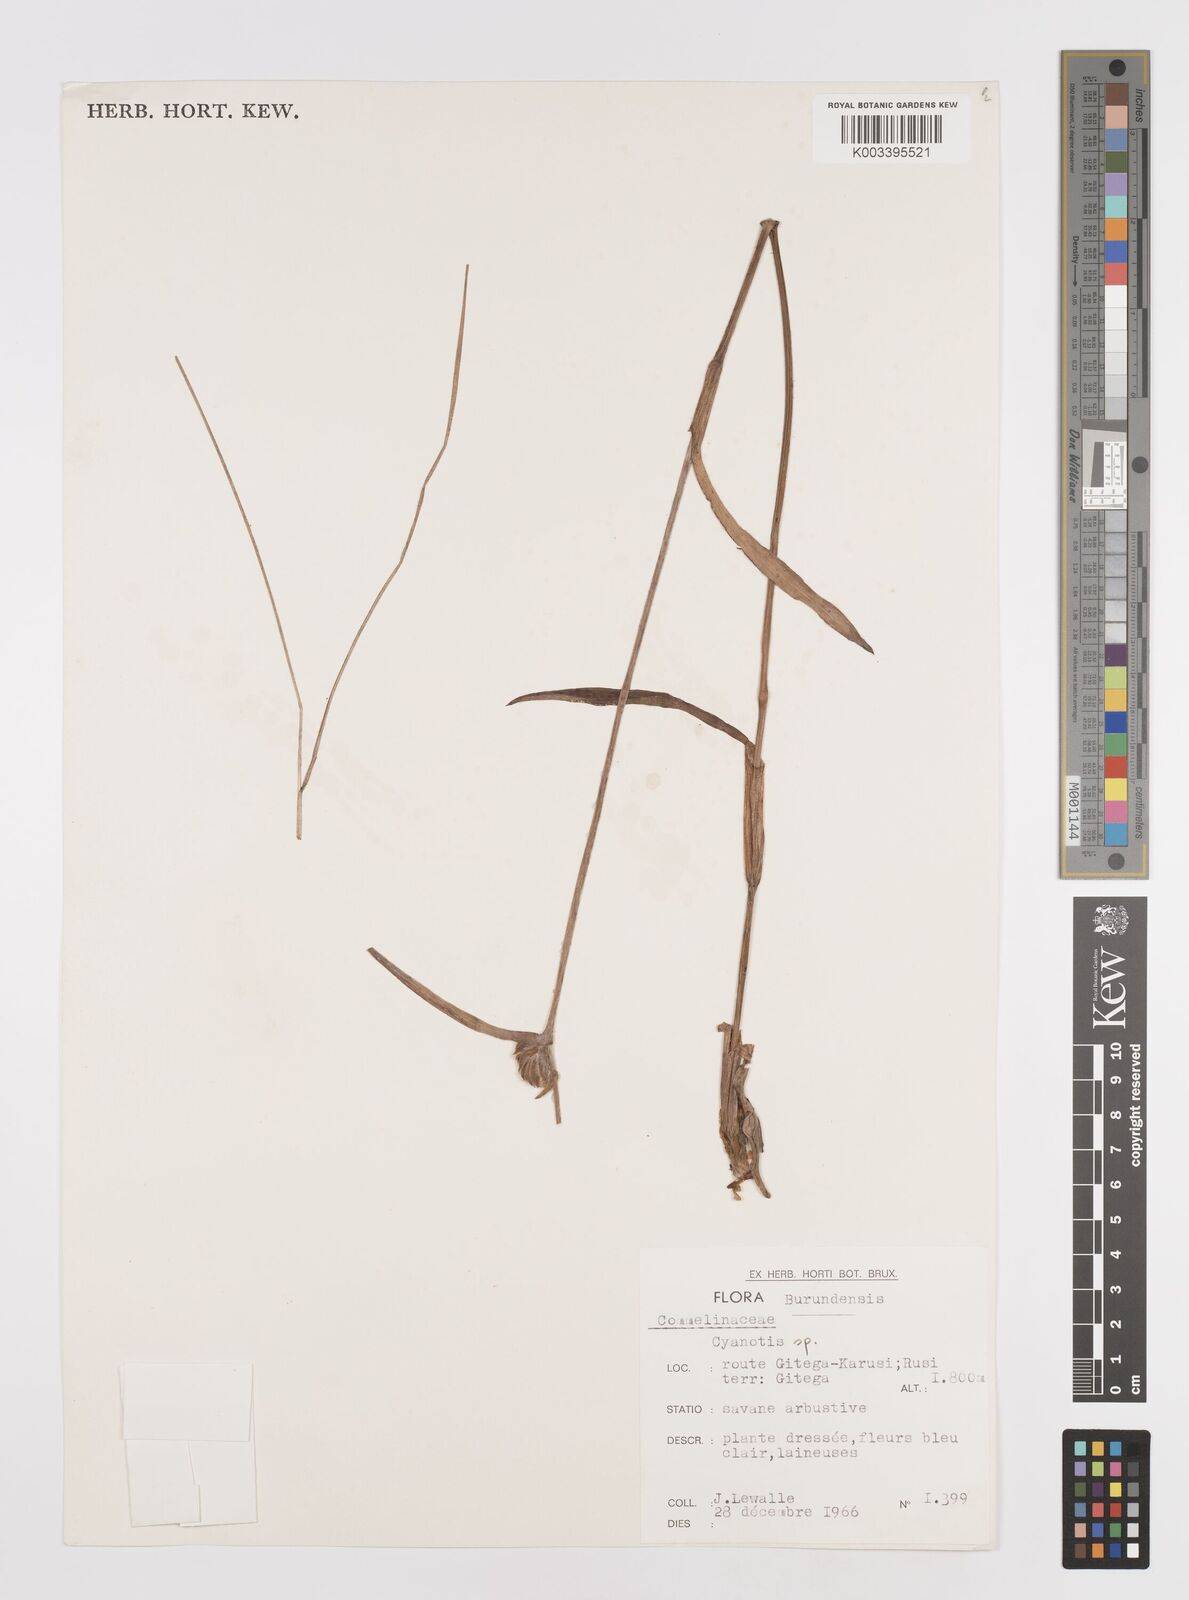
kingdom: Plantae
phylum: Tracheophyta
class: Liliopsida
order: Commelinales
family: Commelinaceae
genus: Cyanotis
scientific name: Cyanotis
